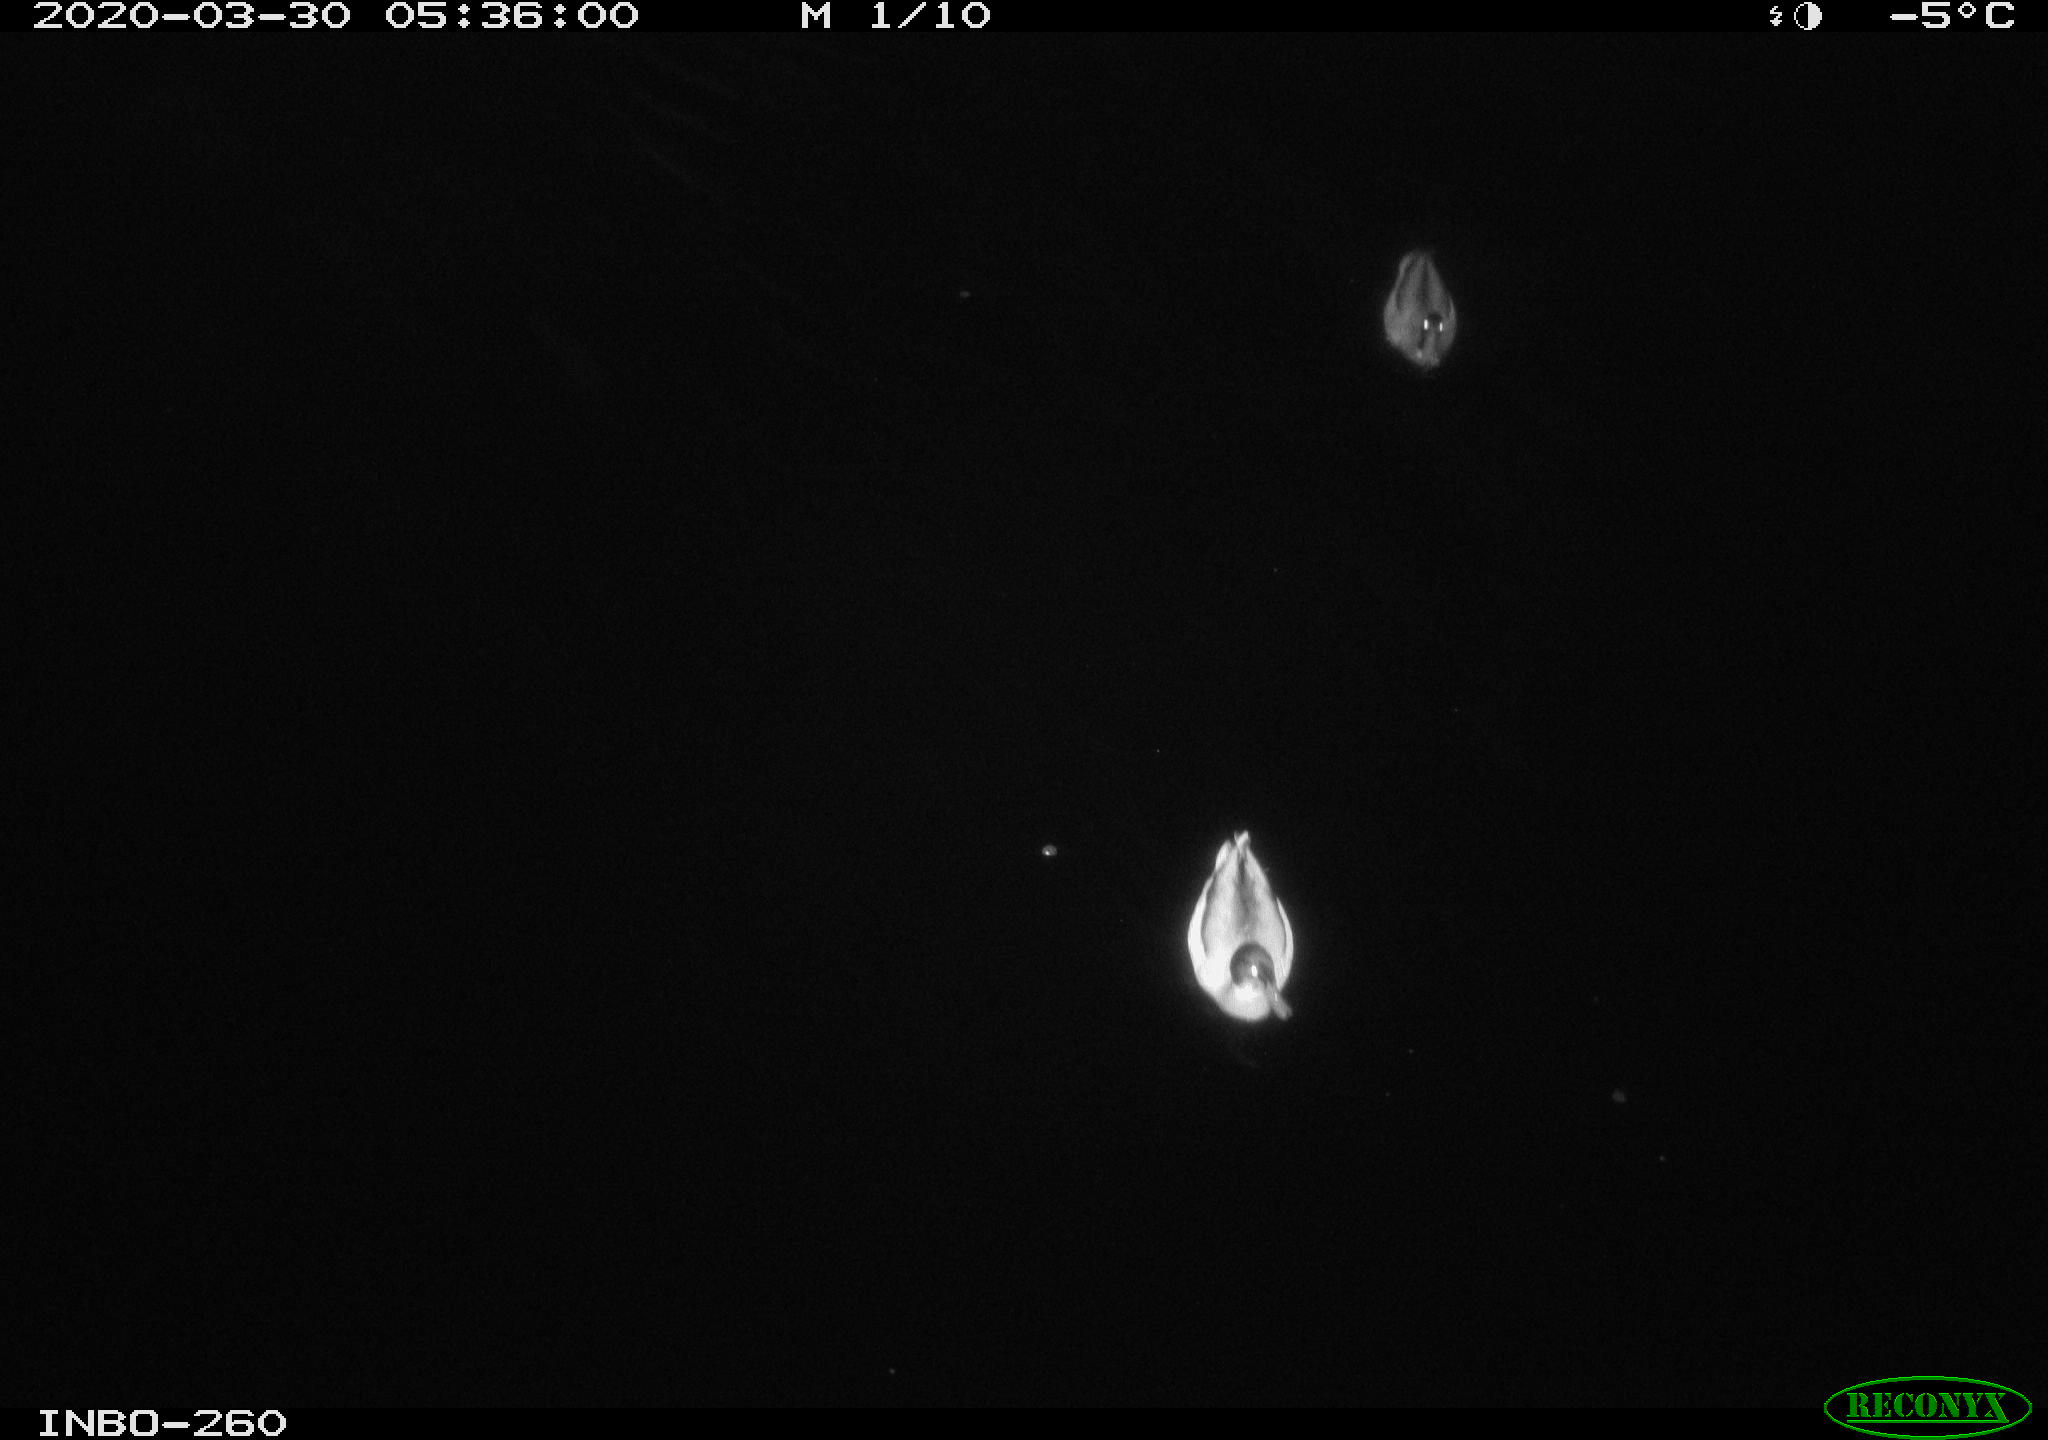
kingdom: Animalia
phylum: Chordata
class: Aves
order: Anseriformes
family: Anatidae
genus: Anas
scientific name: Anas platyrhynchos
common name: Mallard
